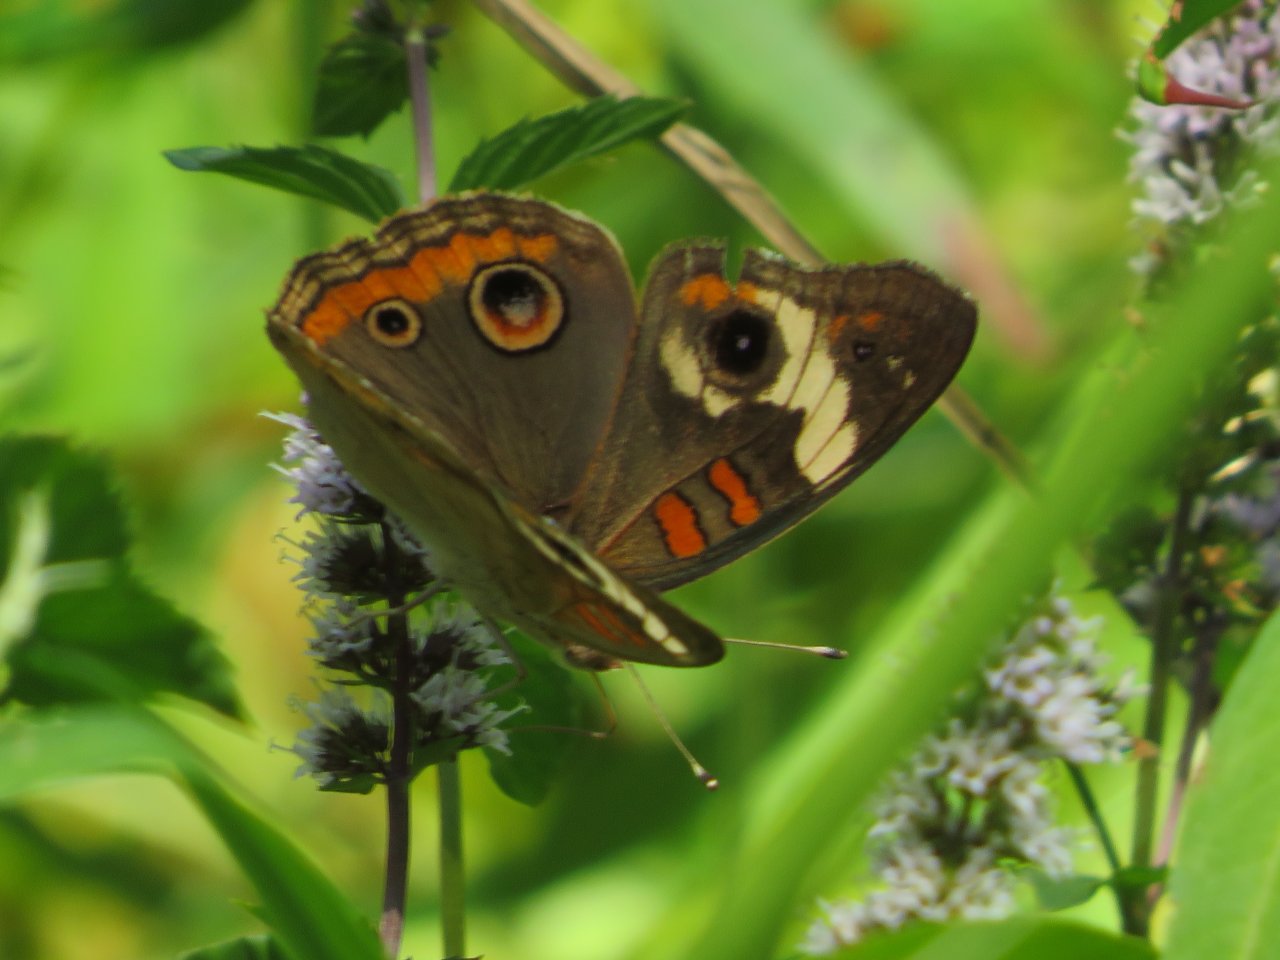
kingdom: Animalia
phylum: Arthropoda
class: Insecta
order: Lepidoptera
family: Nymphalidae
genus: Junonia
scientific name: Junonia coenia
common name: Common Buckeye
